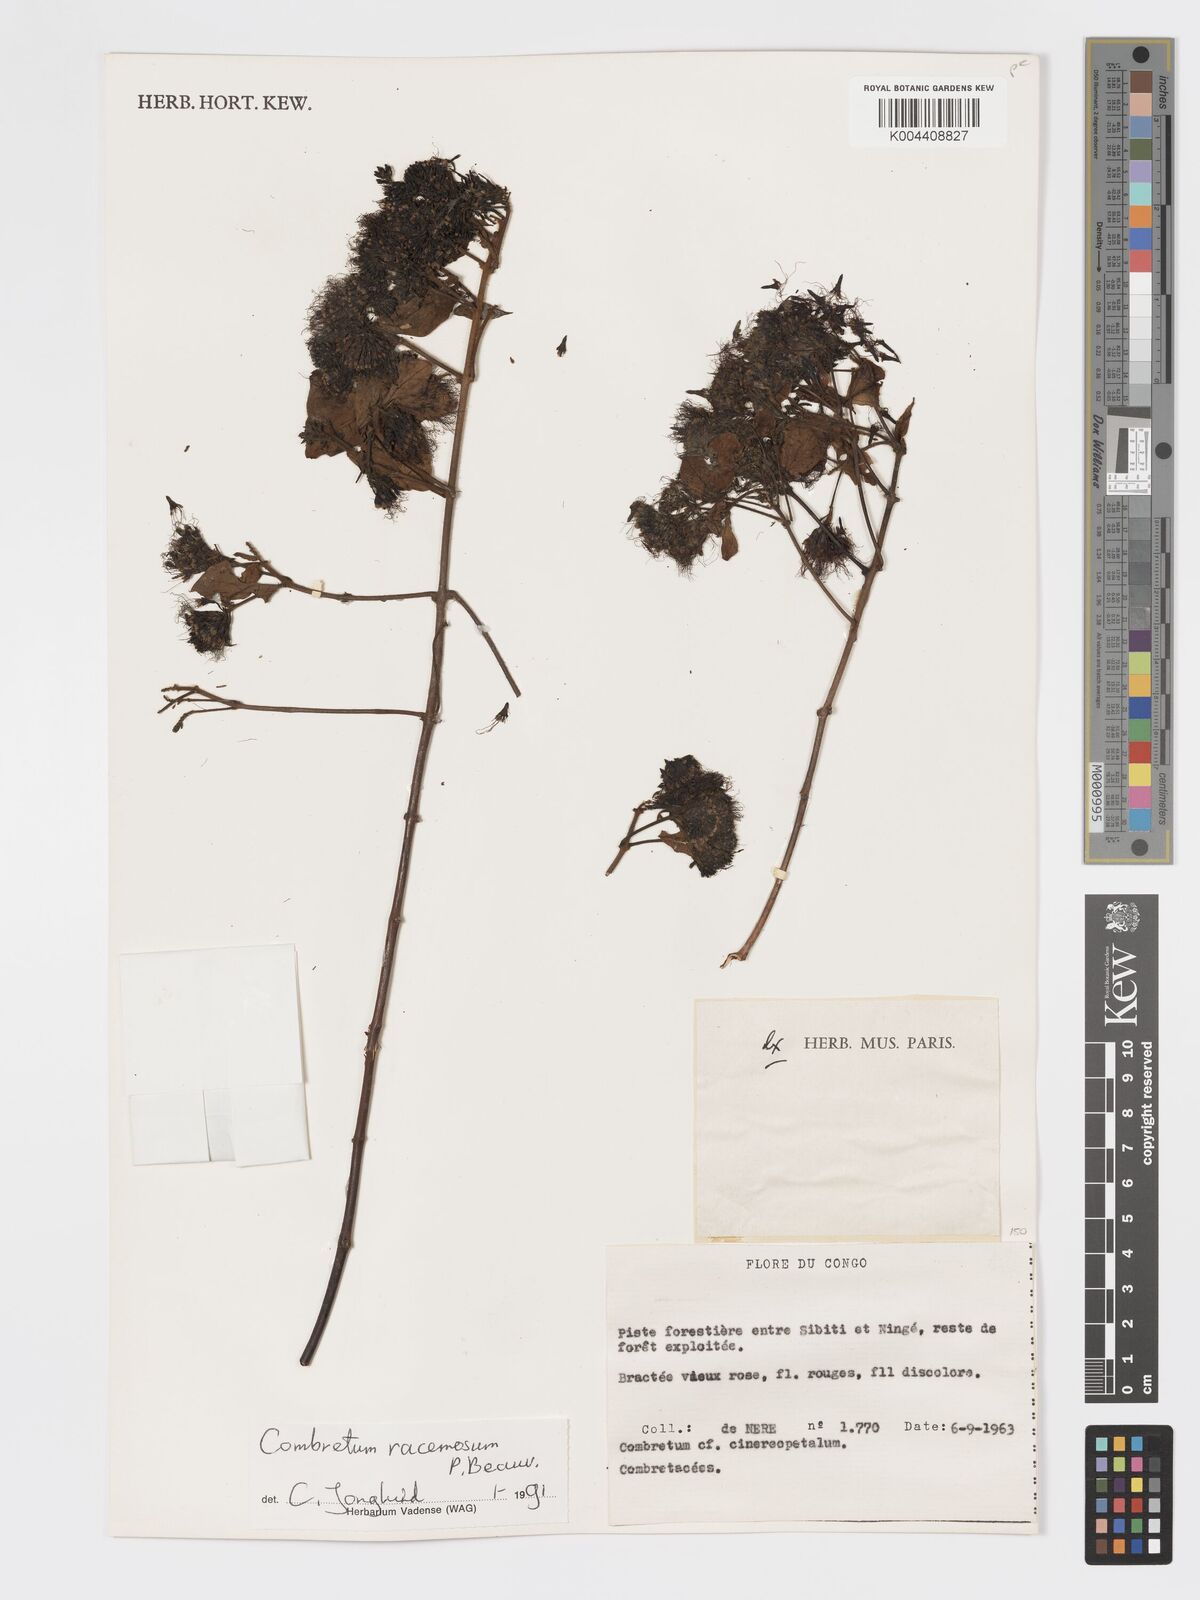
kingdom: Plantae
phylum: Tracheophyta
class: Magnoliopsida
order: Myrtales
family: Combretaceae
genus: Combretum
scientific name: Combretum racemosum
